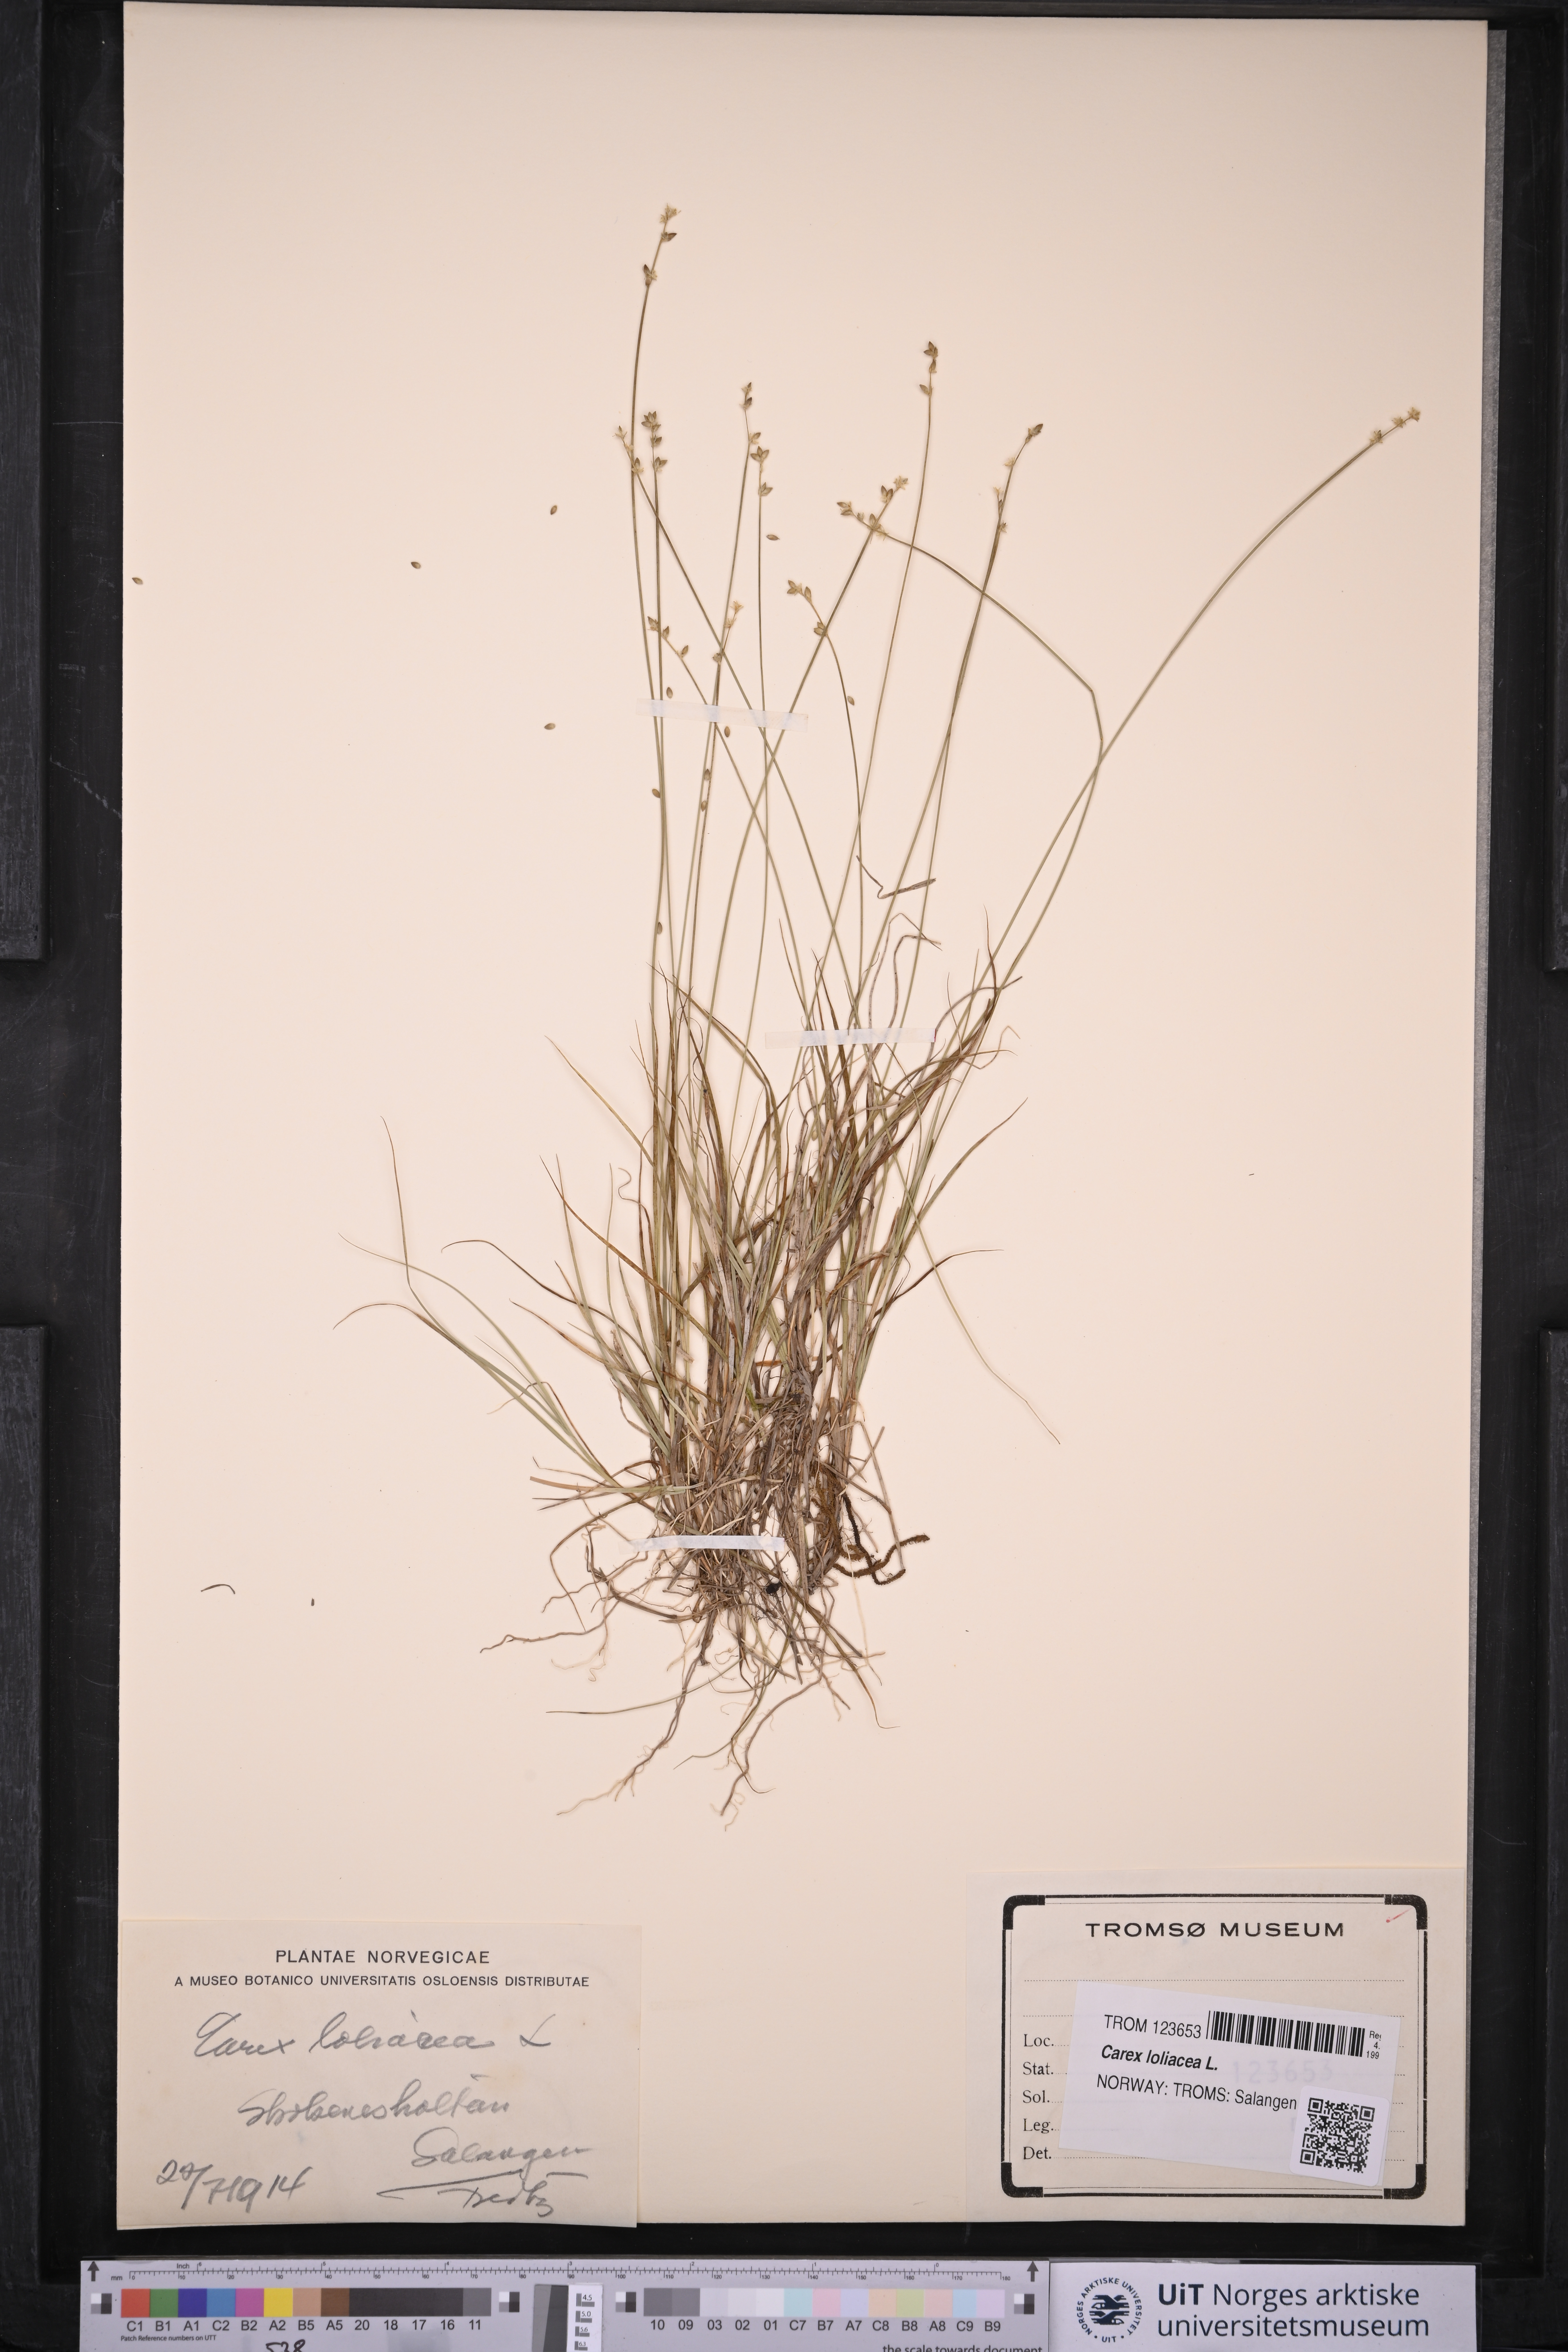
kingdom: Plantae
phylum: Tracheophyta
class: Liliopsida
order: Poales
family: Cyperaceae
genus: Carex
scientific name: Carex loliacea
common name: Ryegrass sedge
